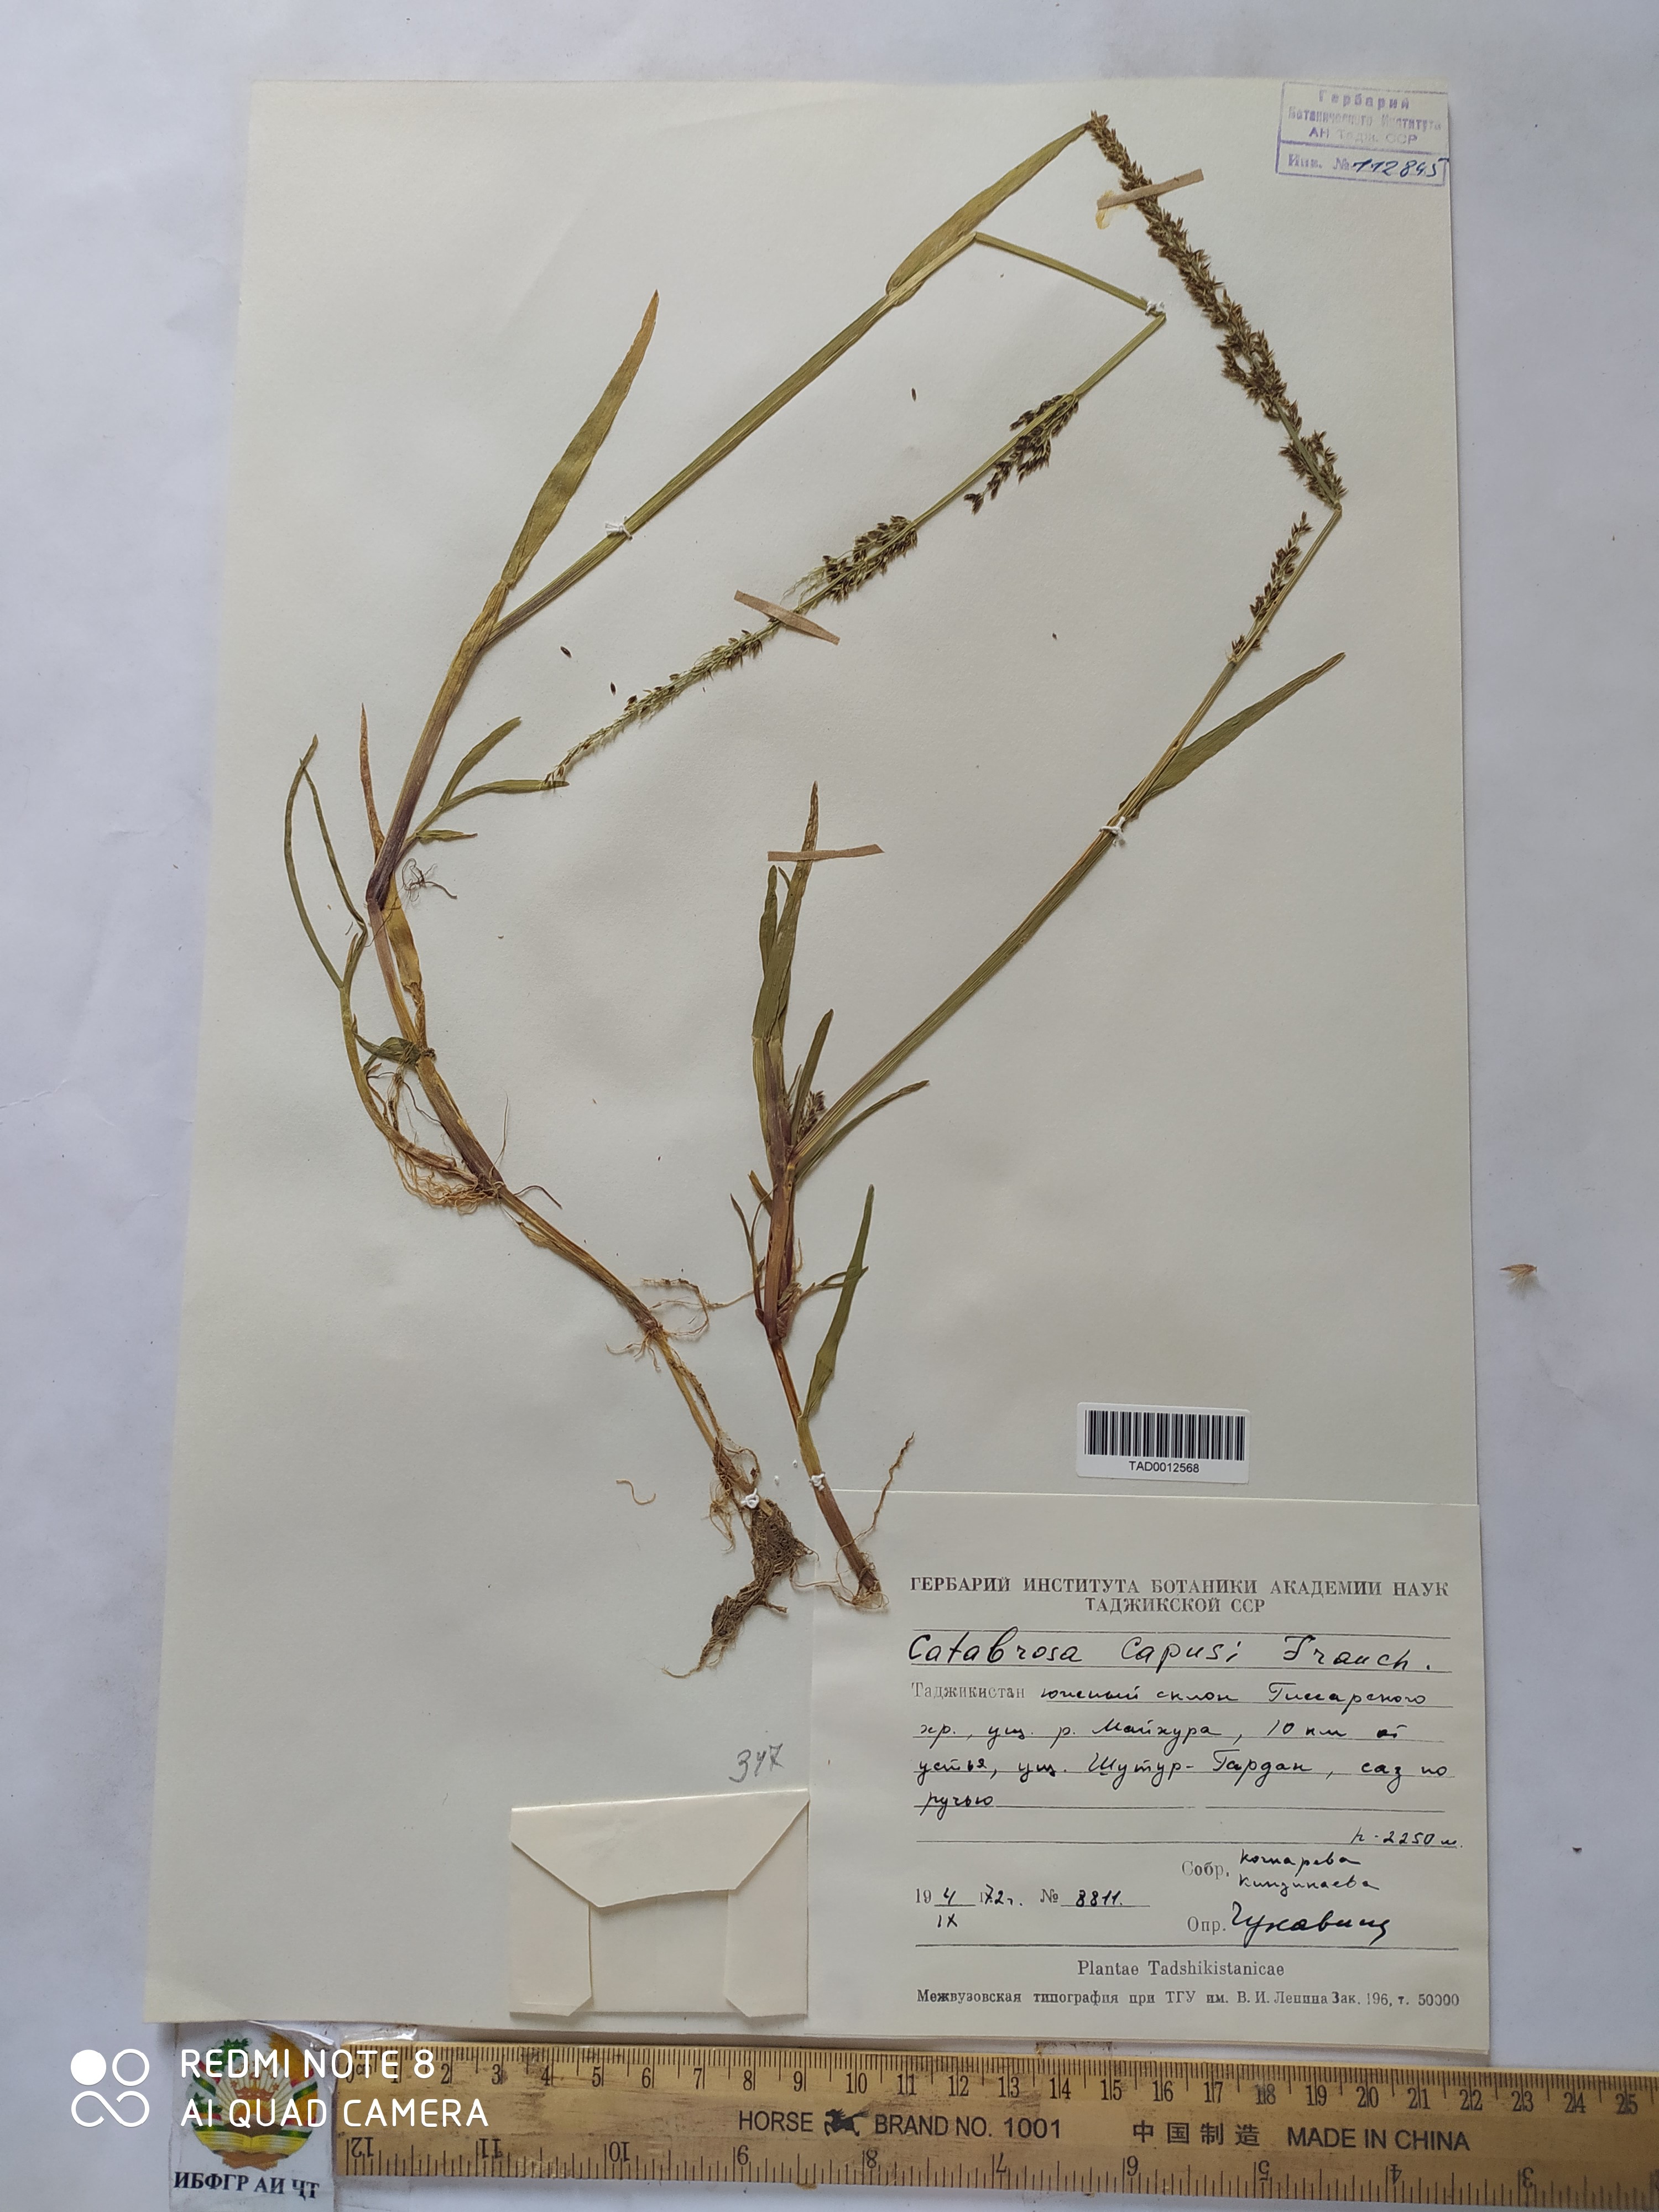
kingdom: Plantae
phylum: Tracheophyta
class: Liliopsida
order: Poales
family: Poaceae
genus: Catabrosa
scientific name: Catabrosa aquatica
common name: Whorl-grass
